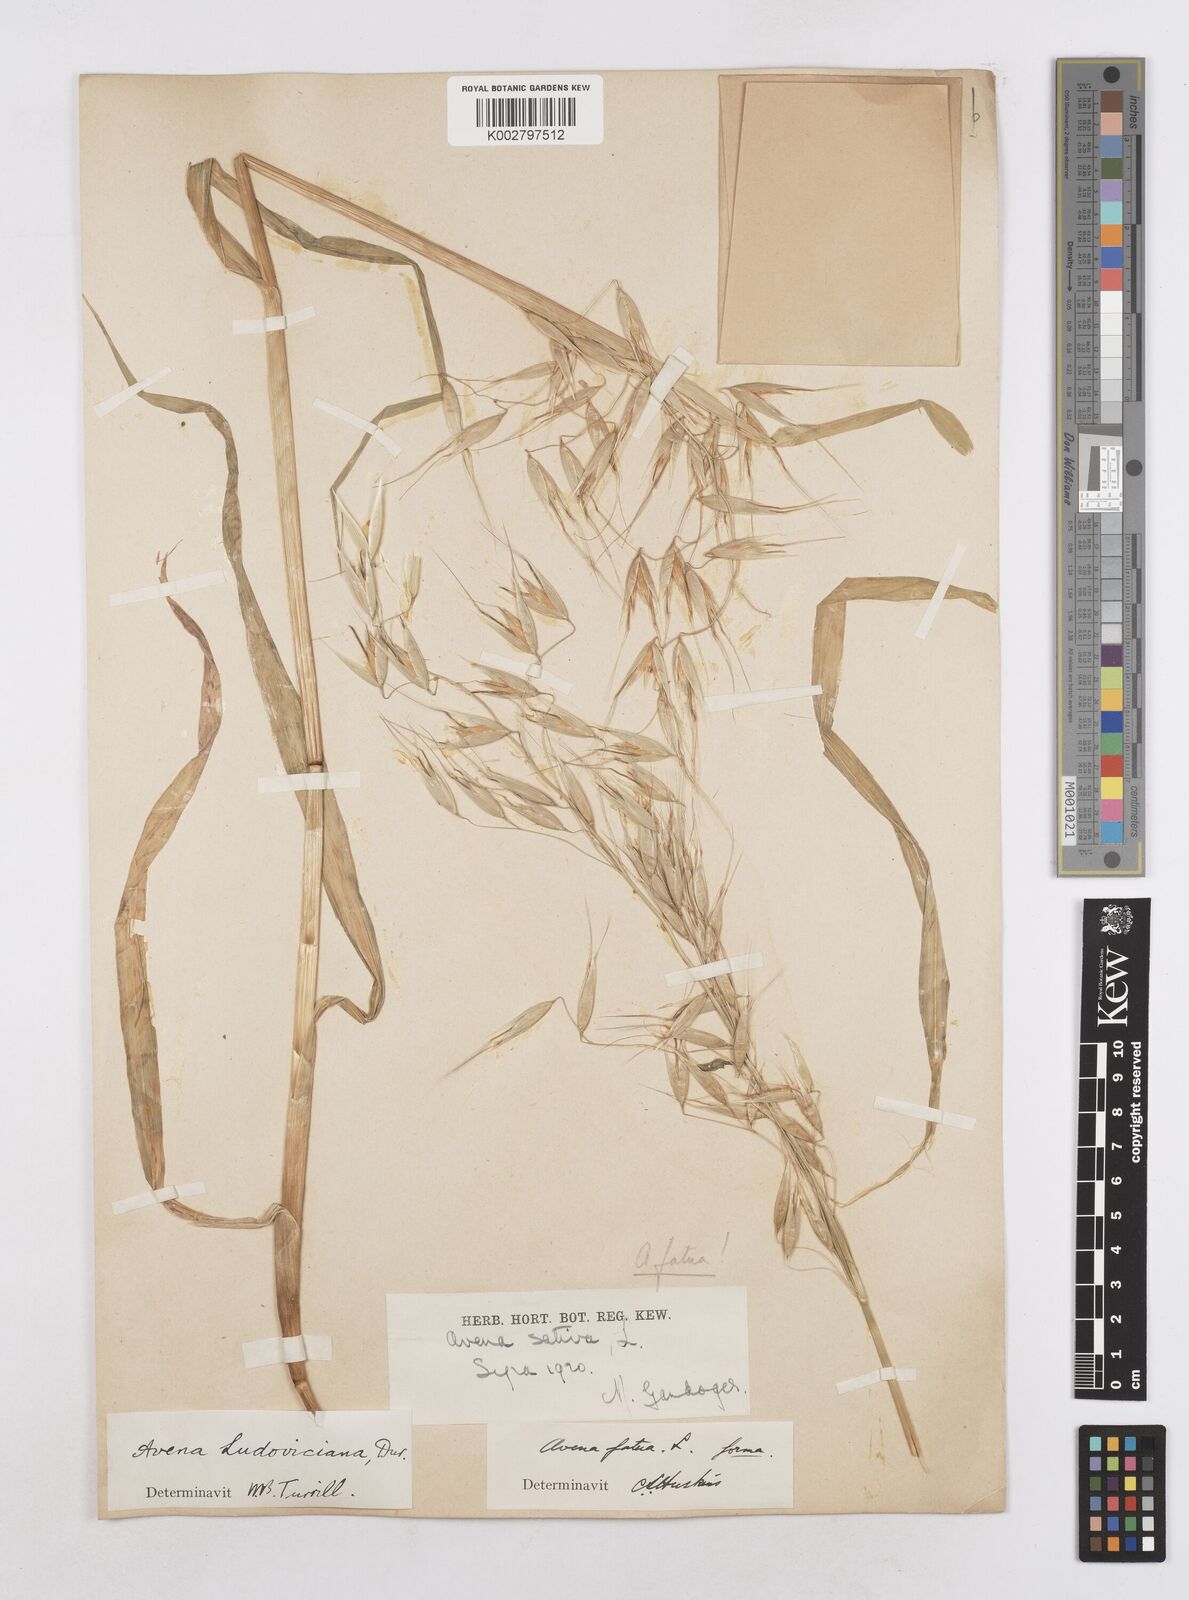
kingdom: Plantae
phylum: Tracheophyta
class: Liliopsida
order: Poales
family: Poaceae
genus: Avena
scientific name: Avena fatua
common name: Wild oat
